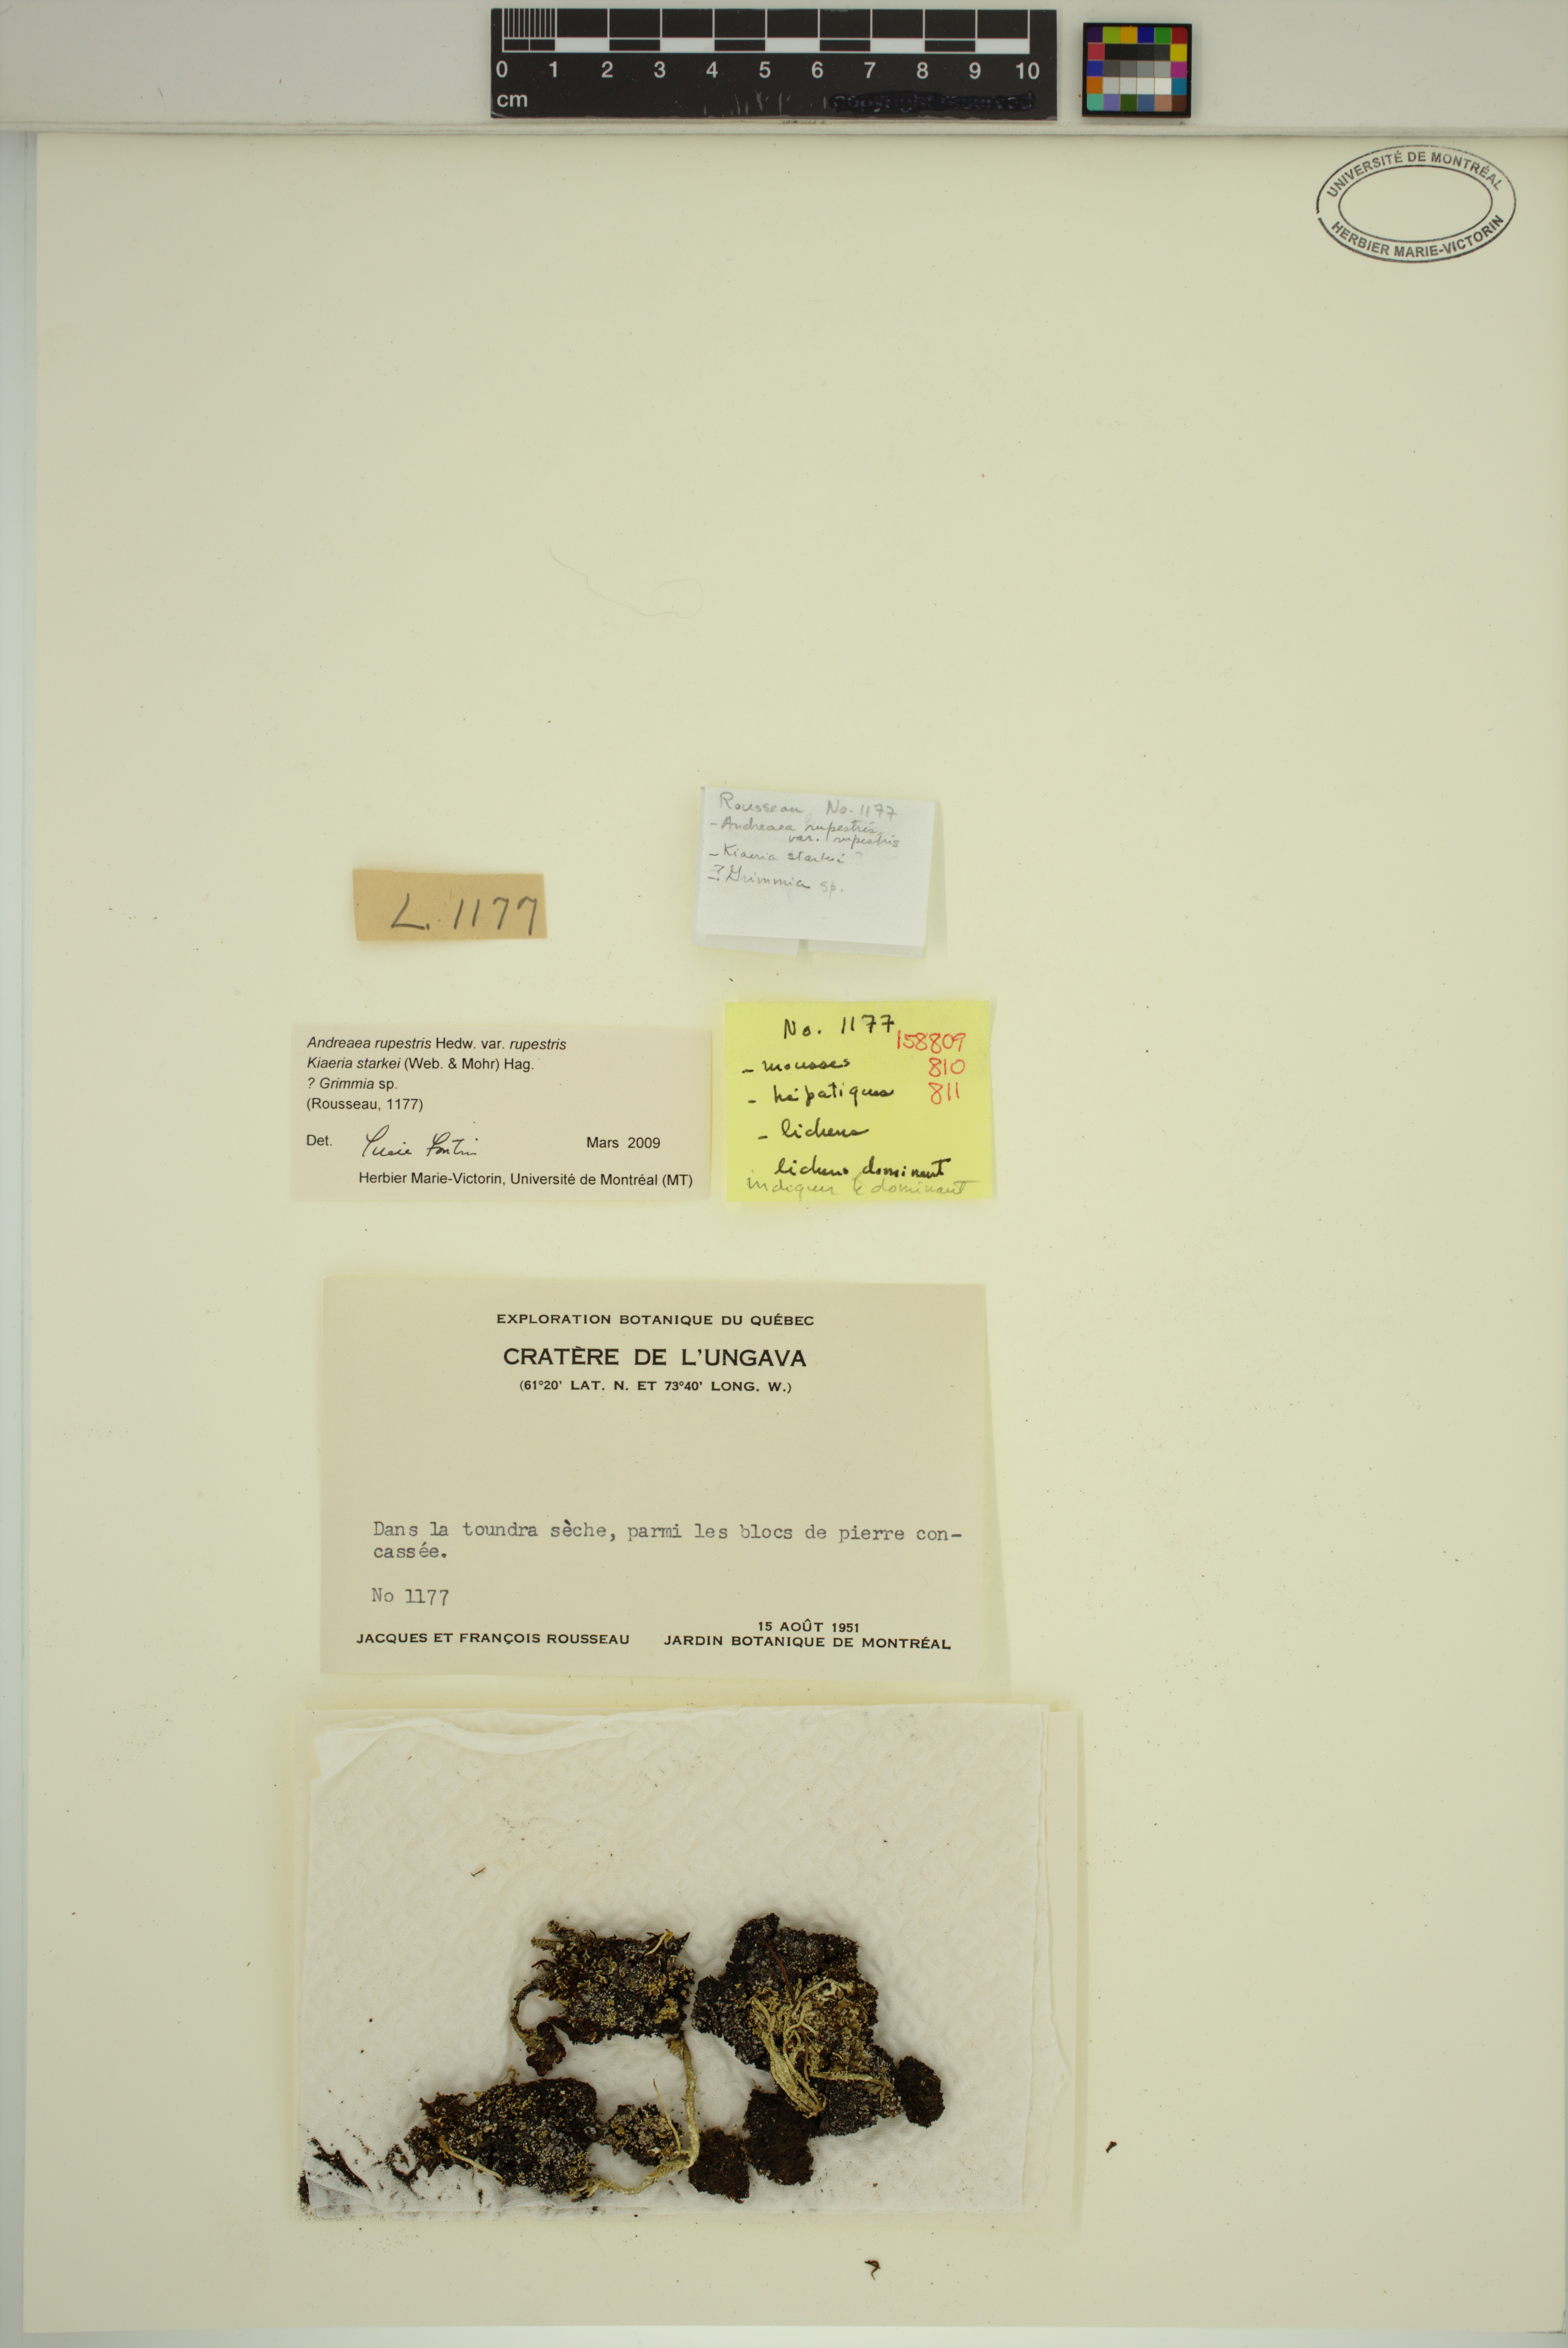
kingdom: Plantae
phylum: Bryophyta
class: Bryopsida
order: Grimmiales
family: Grimmiaceae
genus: Grimmia
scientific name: Grimmia
